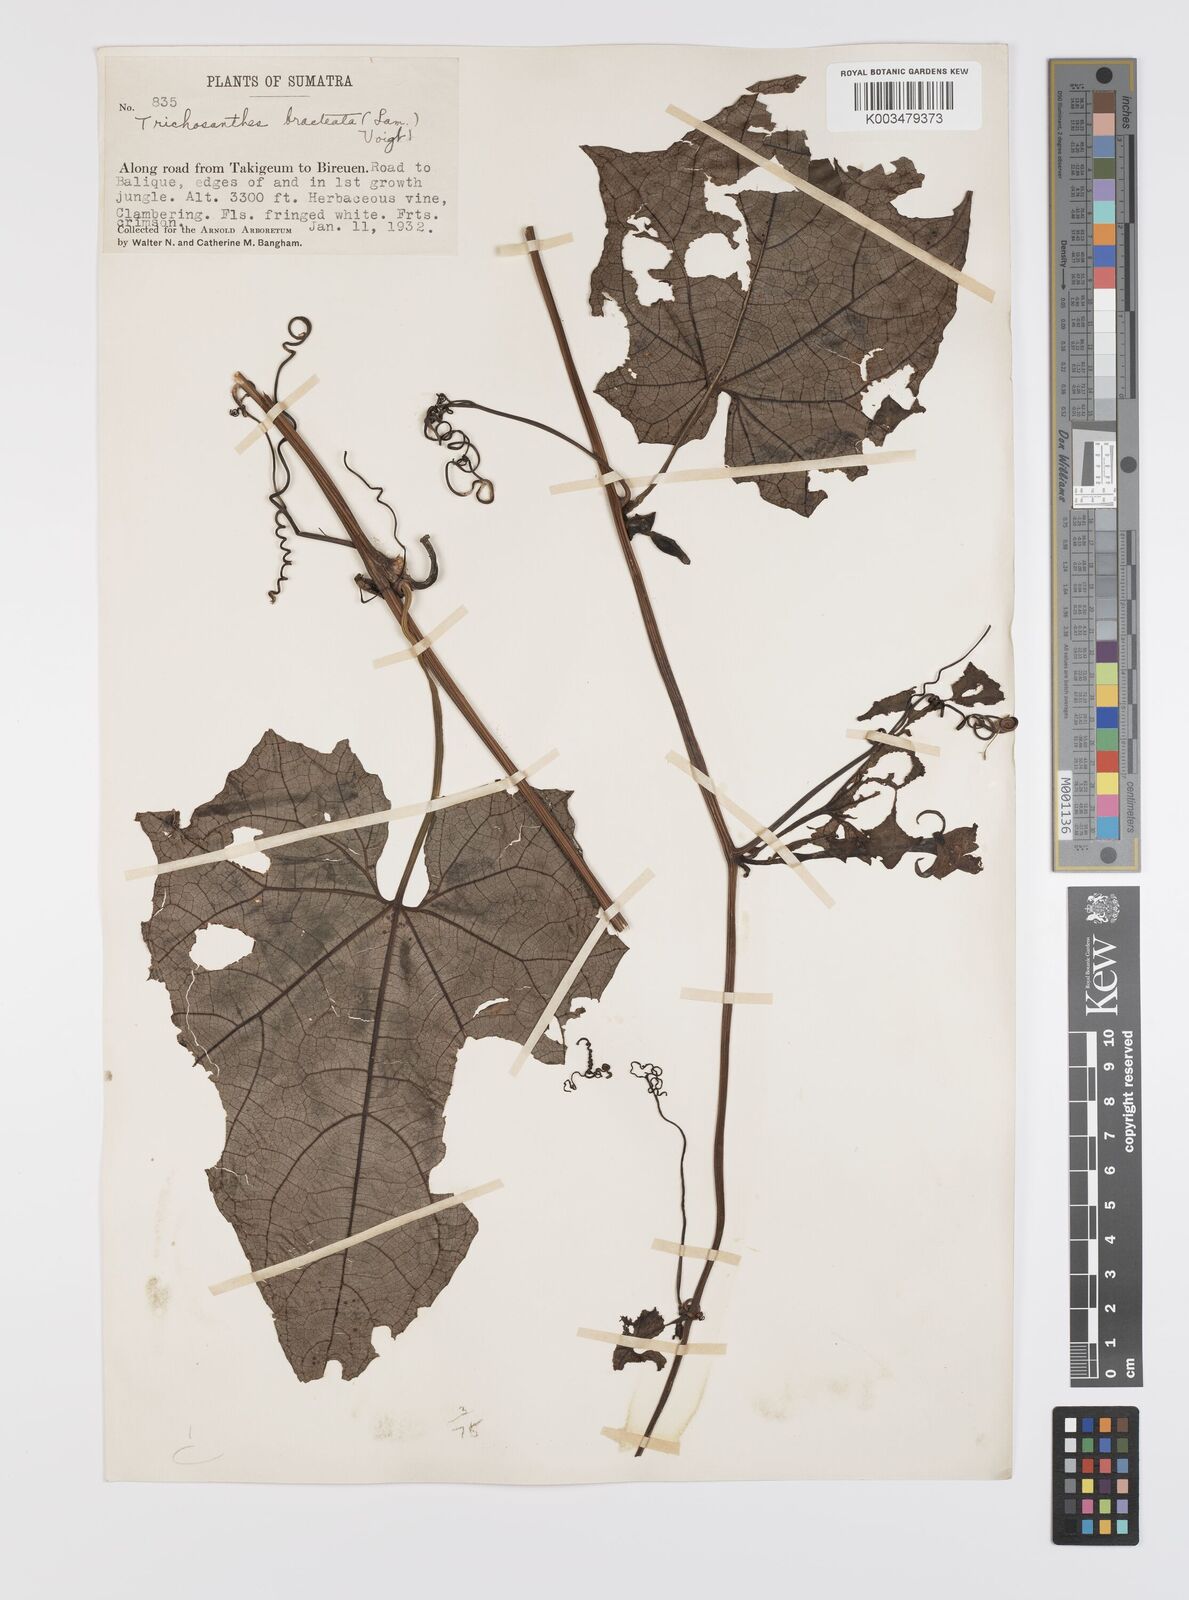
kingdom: Plantae
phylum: Tracheophyta
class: Magnoliopsida
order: Cucurbitales
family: Cucurbitaceae
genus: Trichosanthes
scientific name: Trichosanthes tricuspidata
